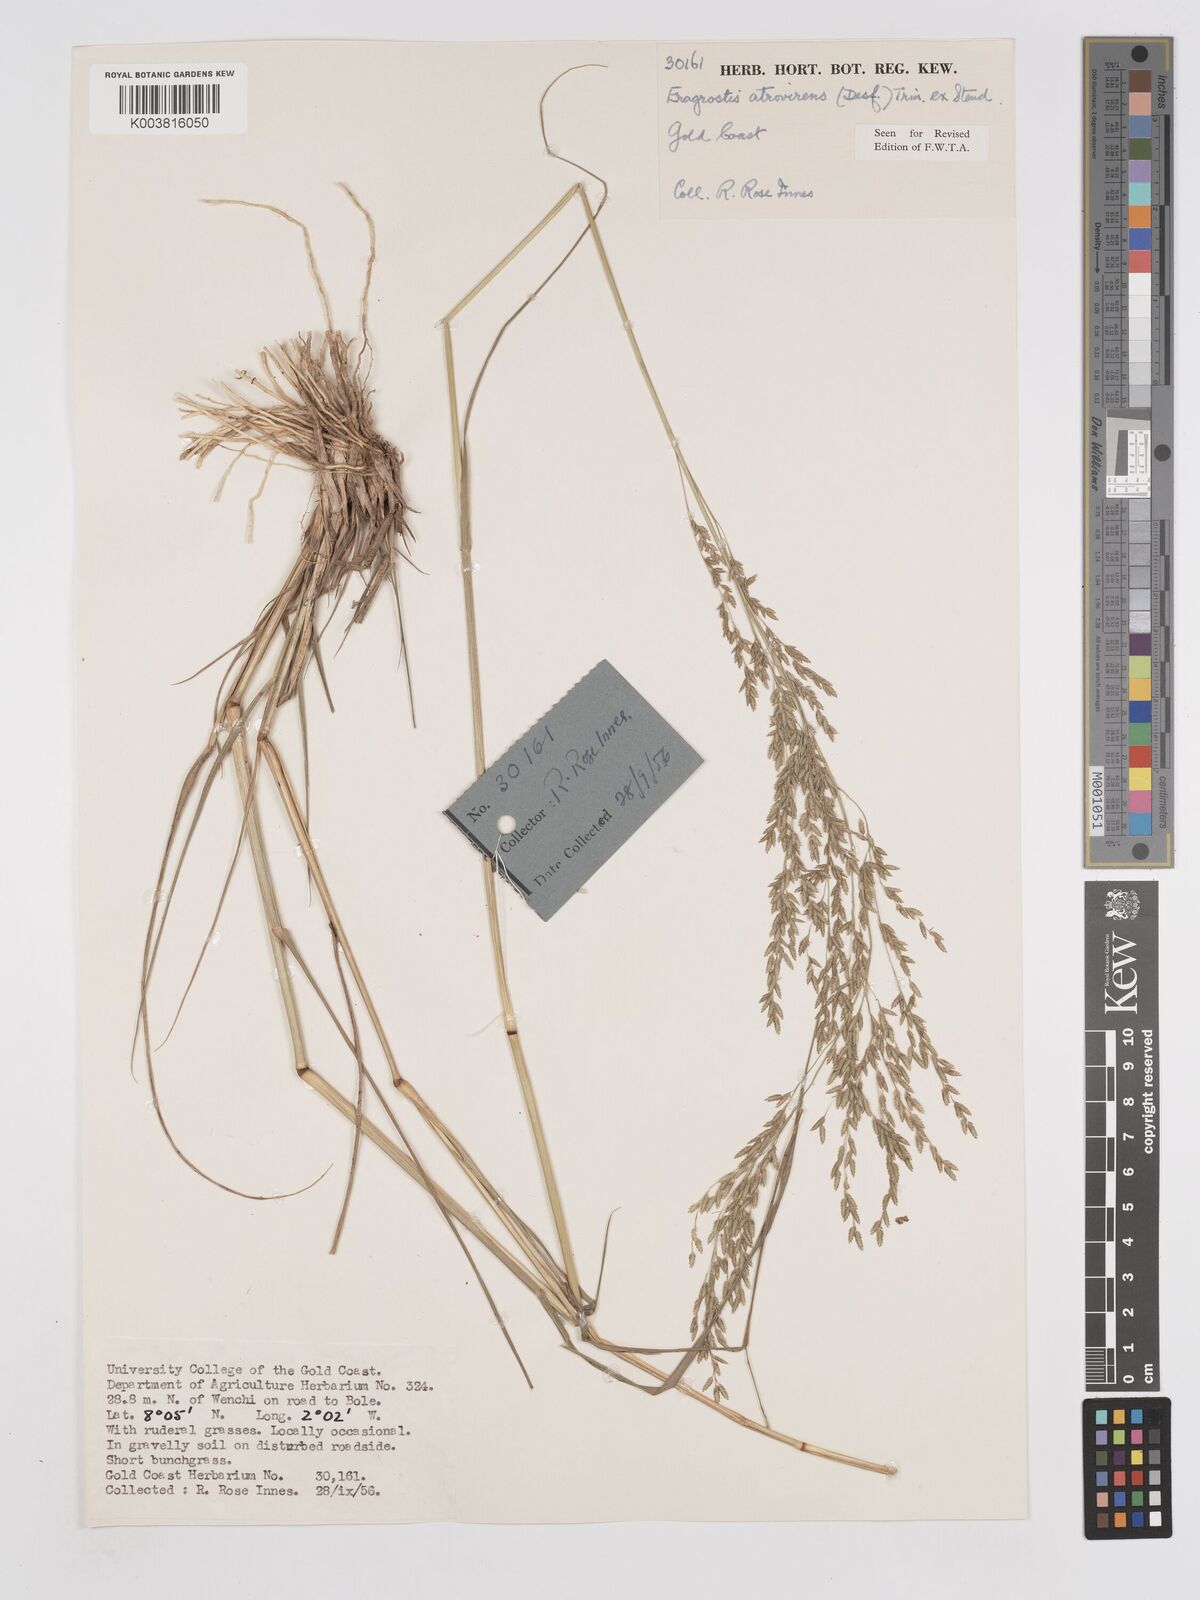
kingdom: Plantae
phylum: Tracheophyta
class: Liliopsida
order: Poales
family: Poaceae
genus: Eragrostis
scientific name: Eragrostis atrovirens
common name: Thalia lovegrass
